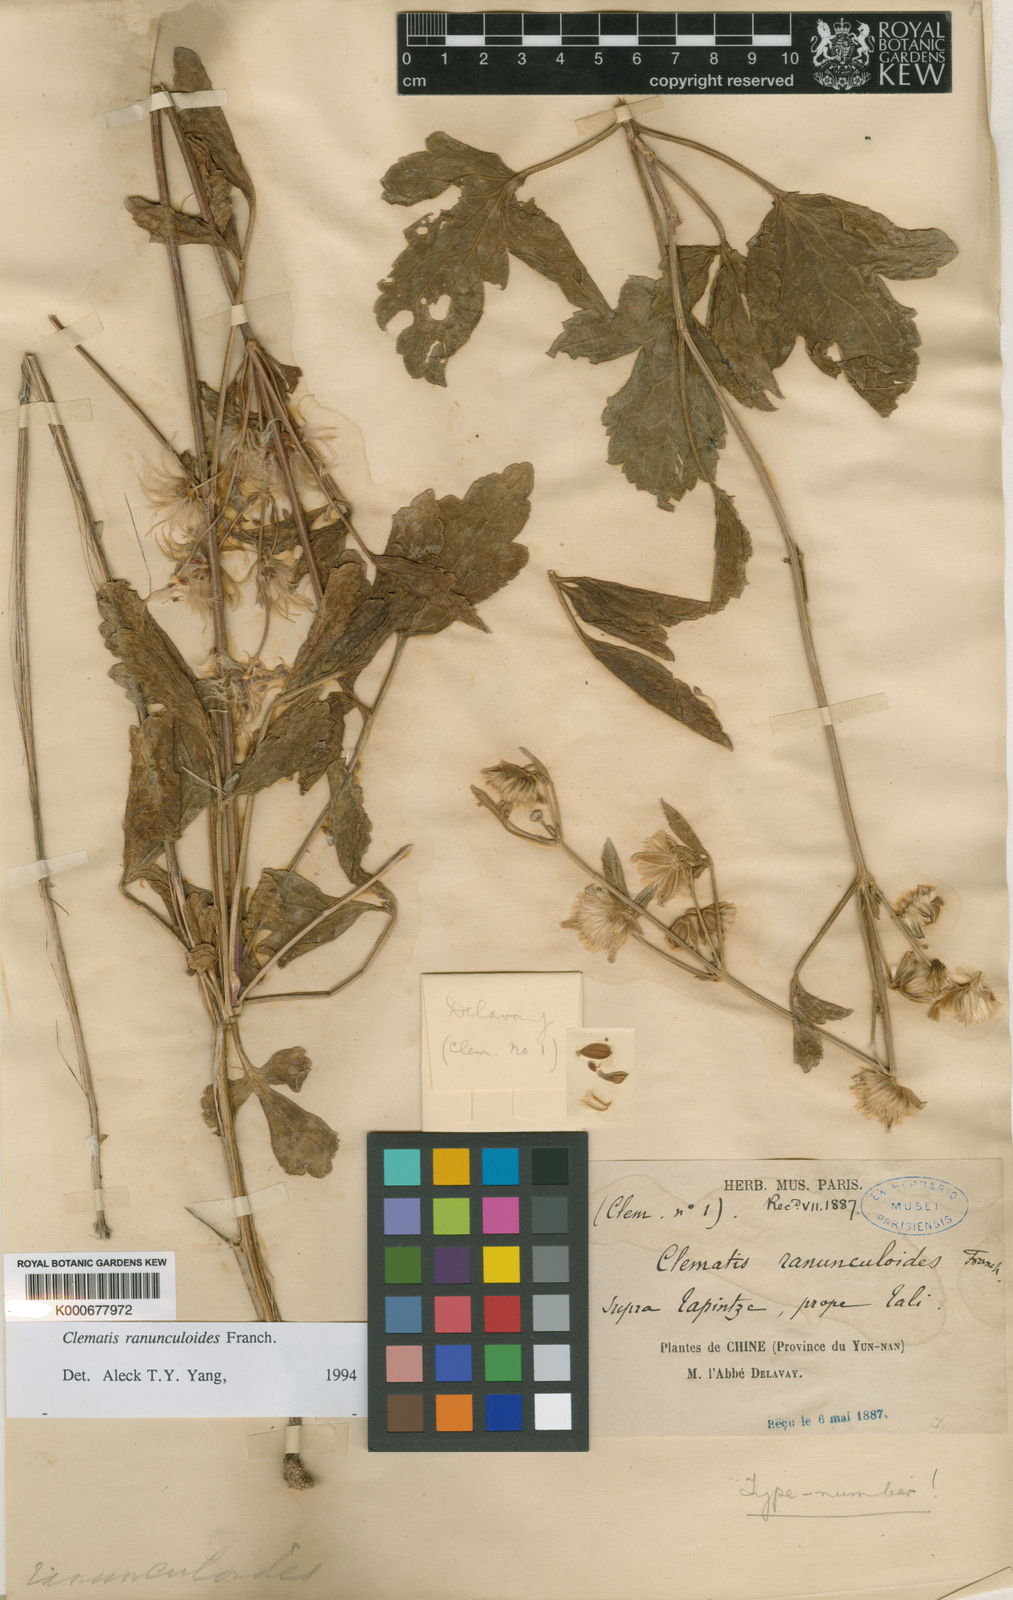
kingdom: Plantae
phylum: Tracheophyta
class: Magnoliopsida
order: Ranunculales
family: Ranunculaceae
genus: Clematis
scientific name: Clematis ranunculoides
